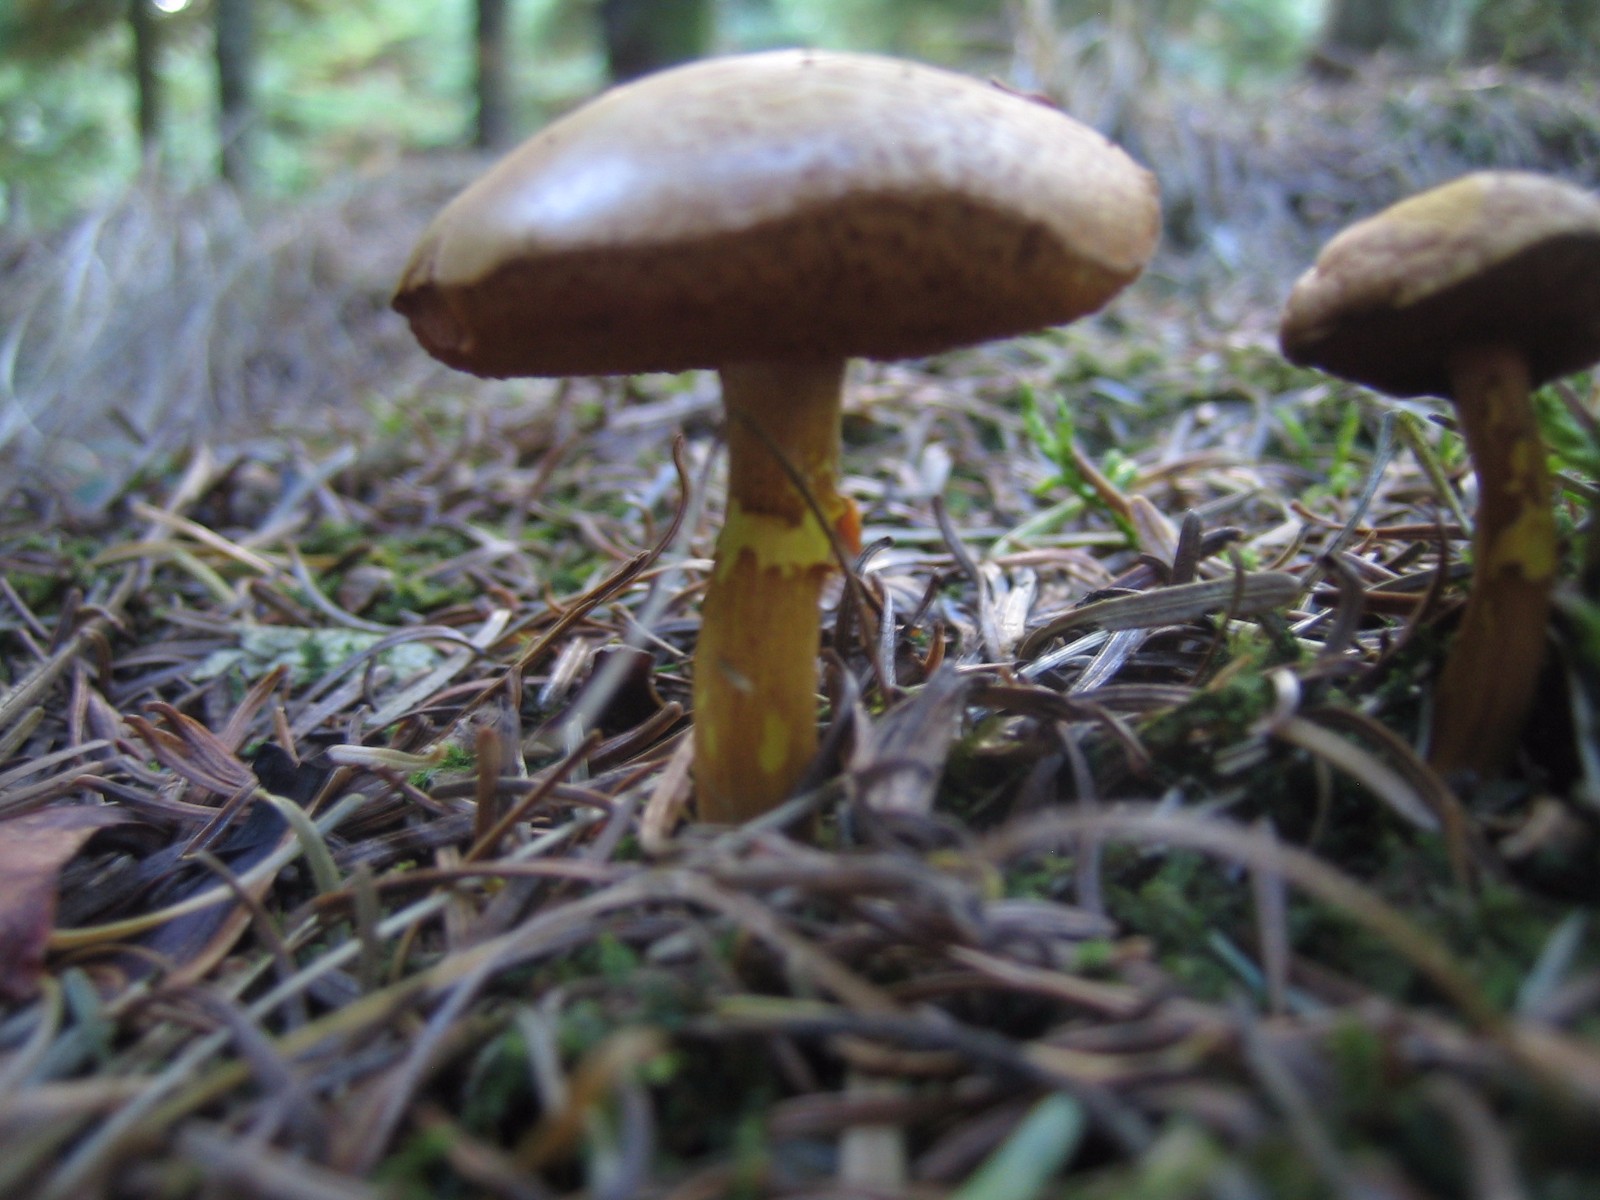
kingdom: Fungi
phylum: Basidiomycota
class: Agaricomycetes
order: Boletales
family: Boletaceae
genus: Chalciporus
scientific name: Chalciporus piperatus
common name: peberrørhat
